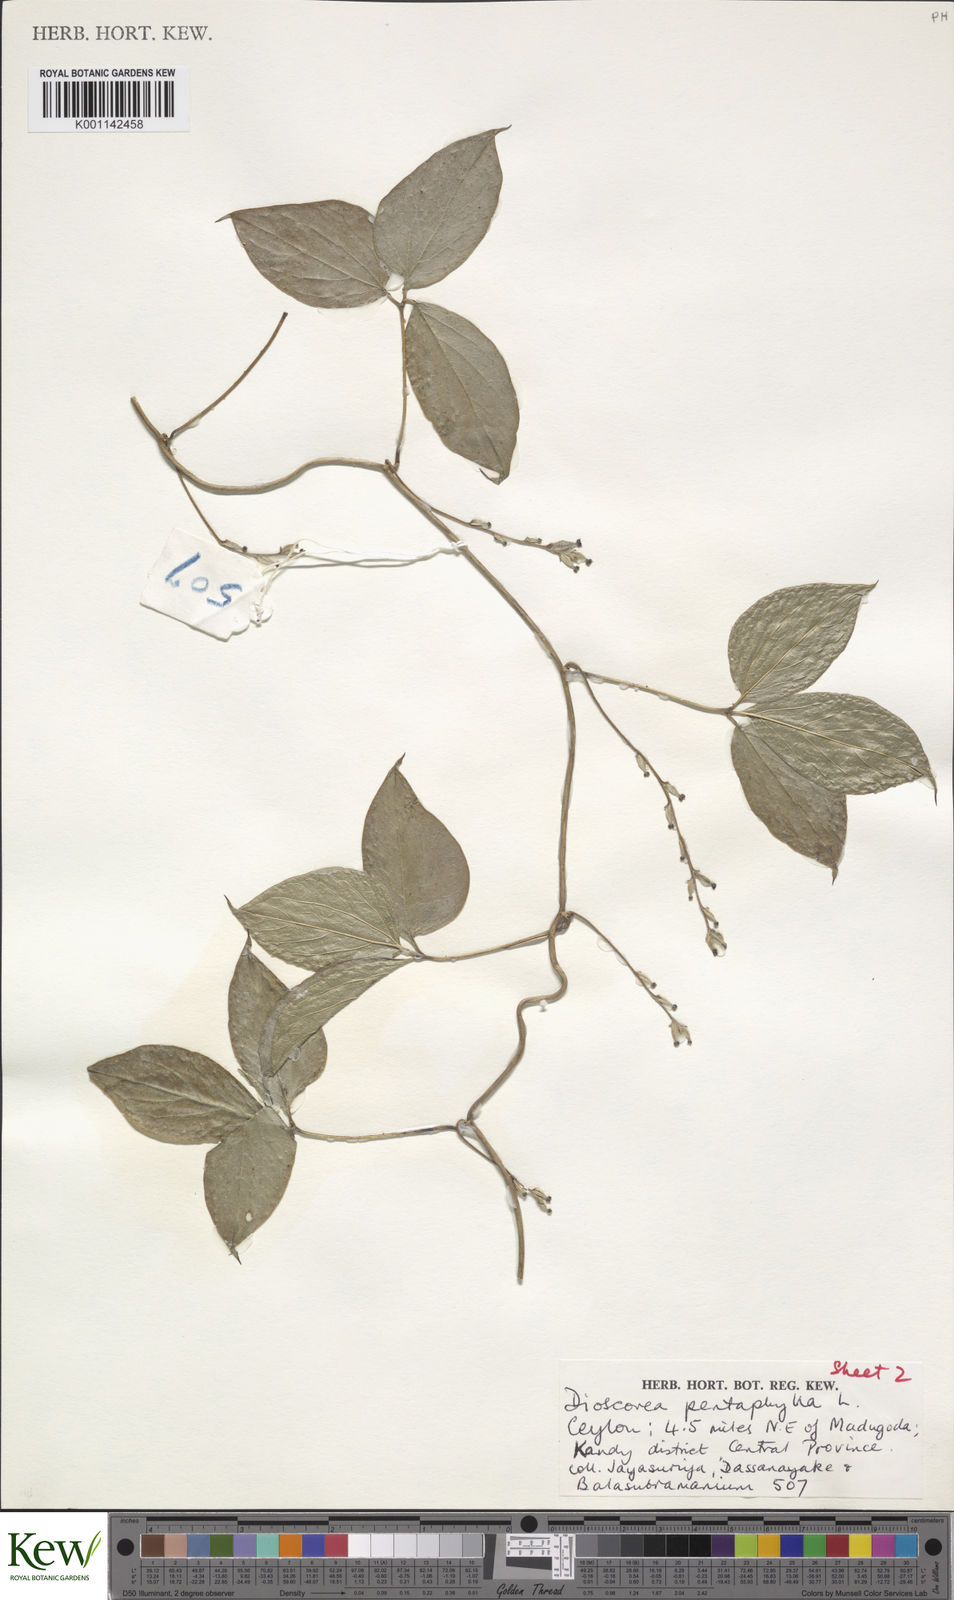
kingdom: Plantae
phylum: Tracheophyta
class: Liliopsida
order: Dioscoreales
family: Dioscoreaceae
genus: Dioscorea
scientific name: Dioscorea pentaphylla
